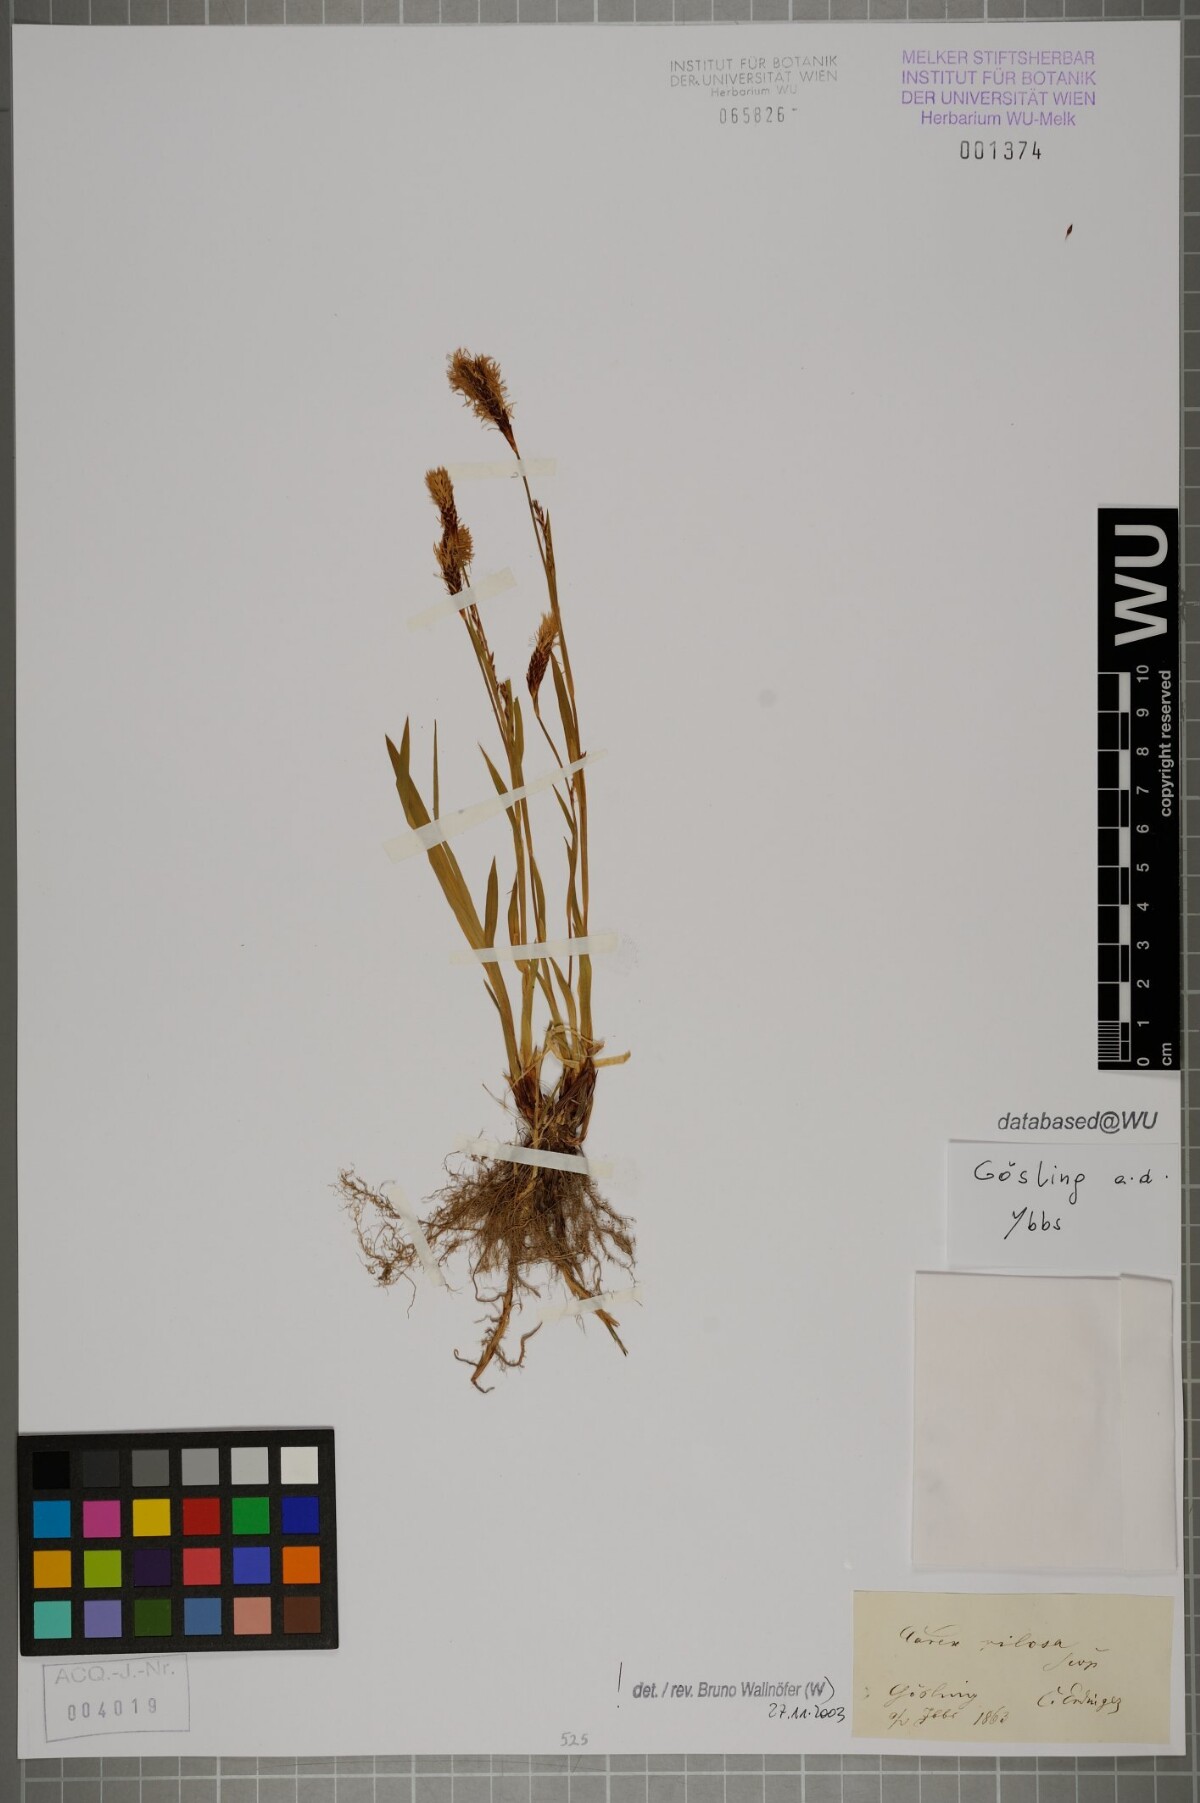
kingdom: Plantae
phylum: Tracheophyta
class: Liliopsida
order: Poales
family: Cyperaceae
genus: Carex
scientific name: Carex pilosa
